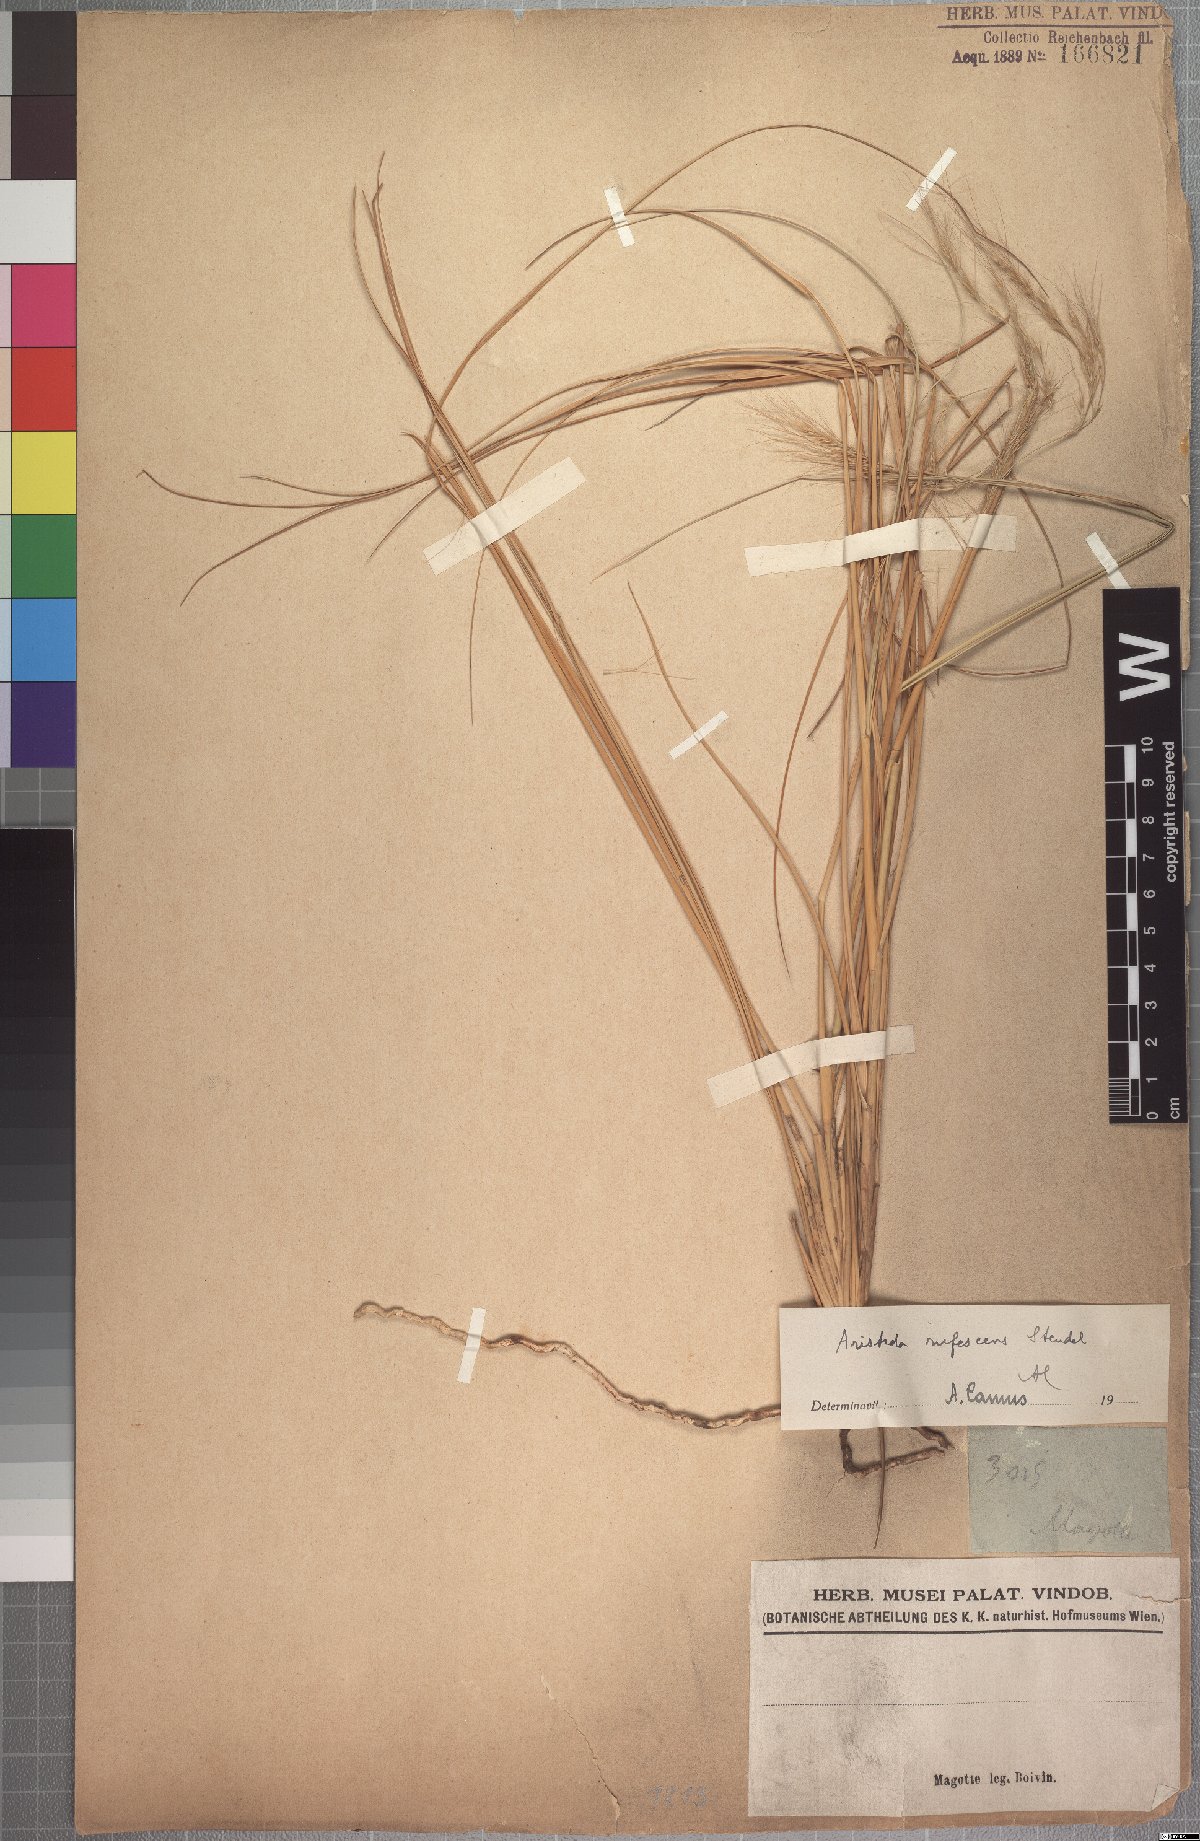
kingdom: Plantae
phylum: Tracheophyta
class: Liliopsida
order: Poales
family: Poaceae
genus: Aristida
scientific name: Aristida rufescens
